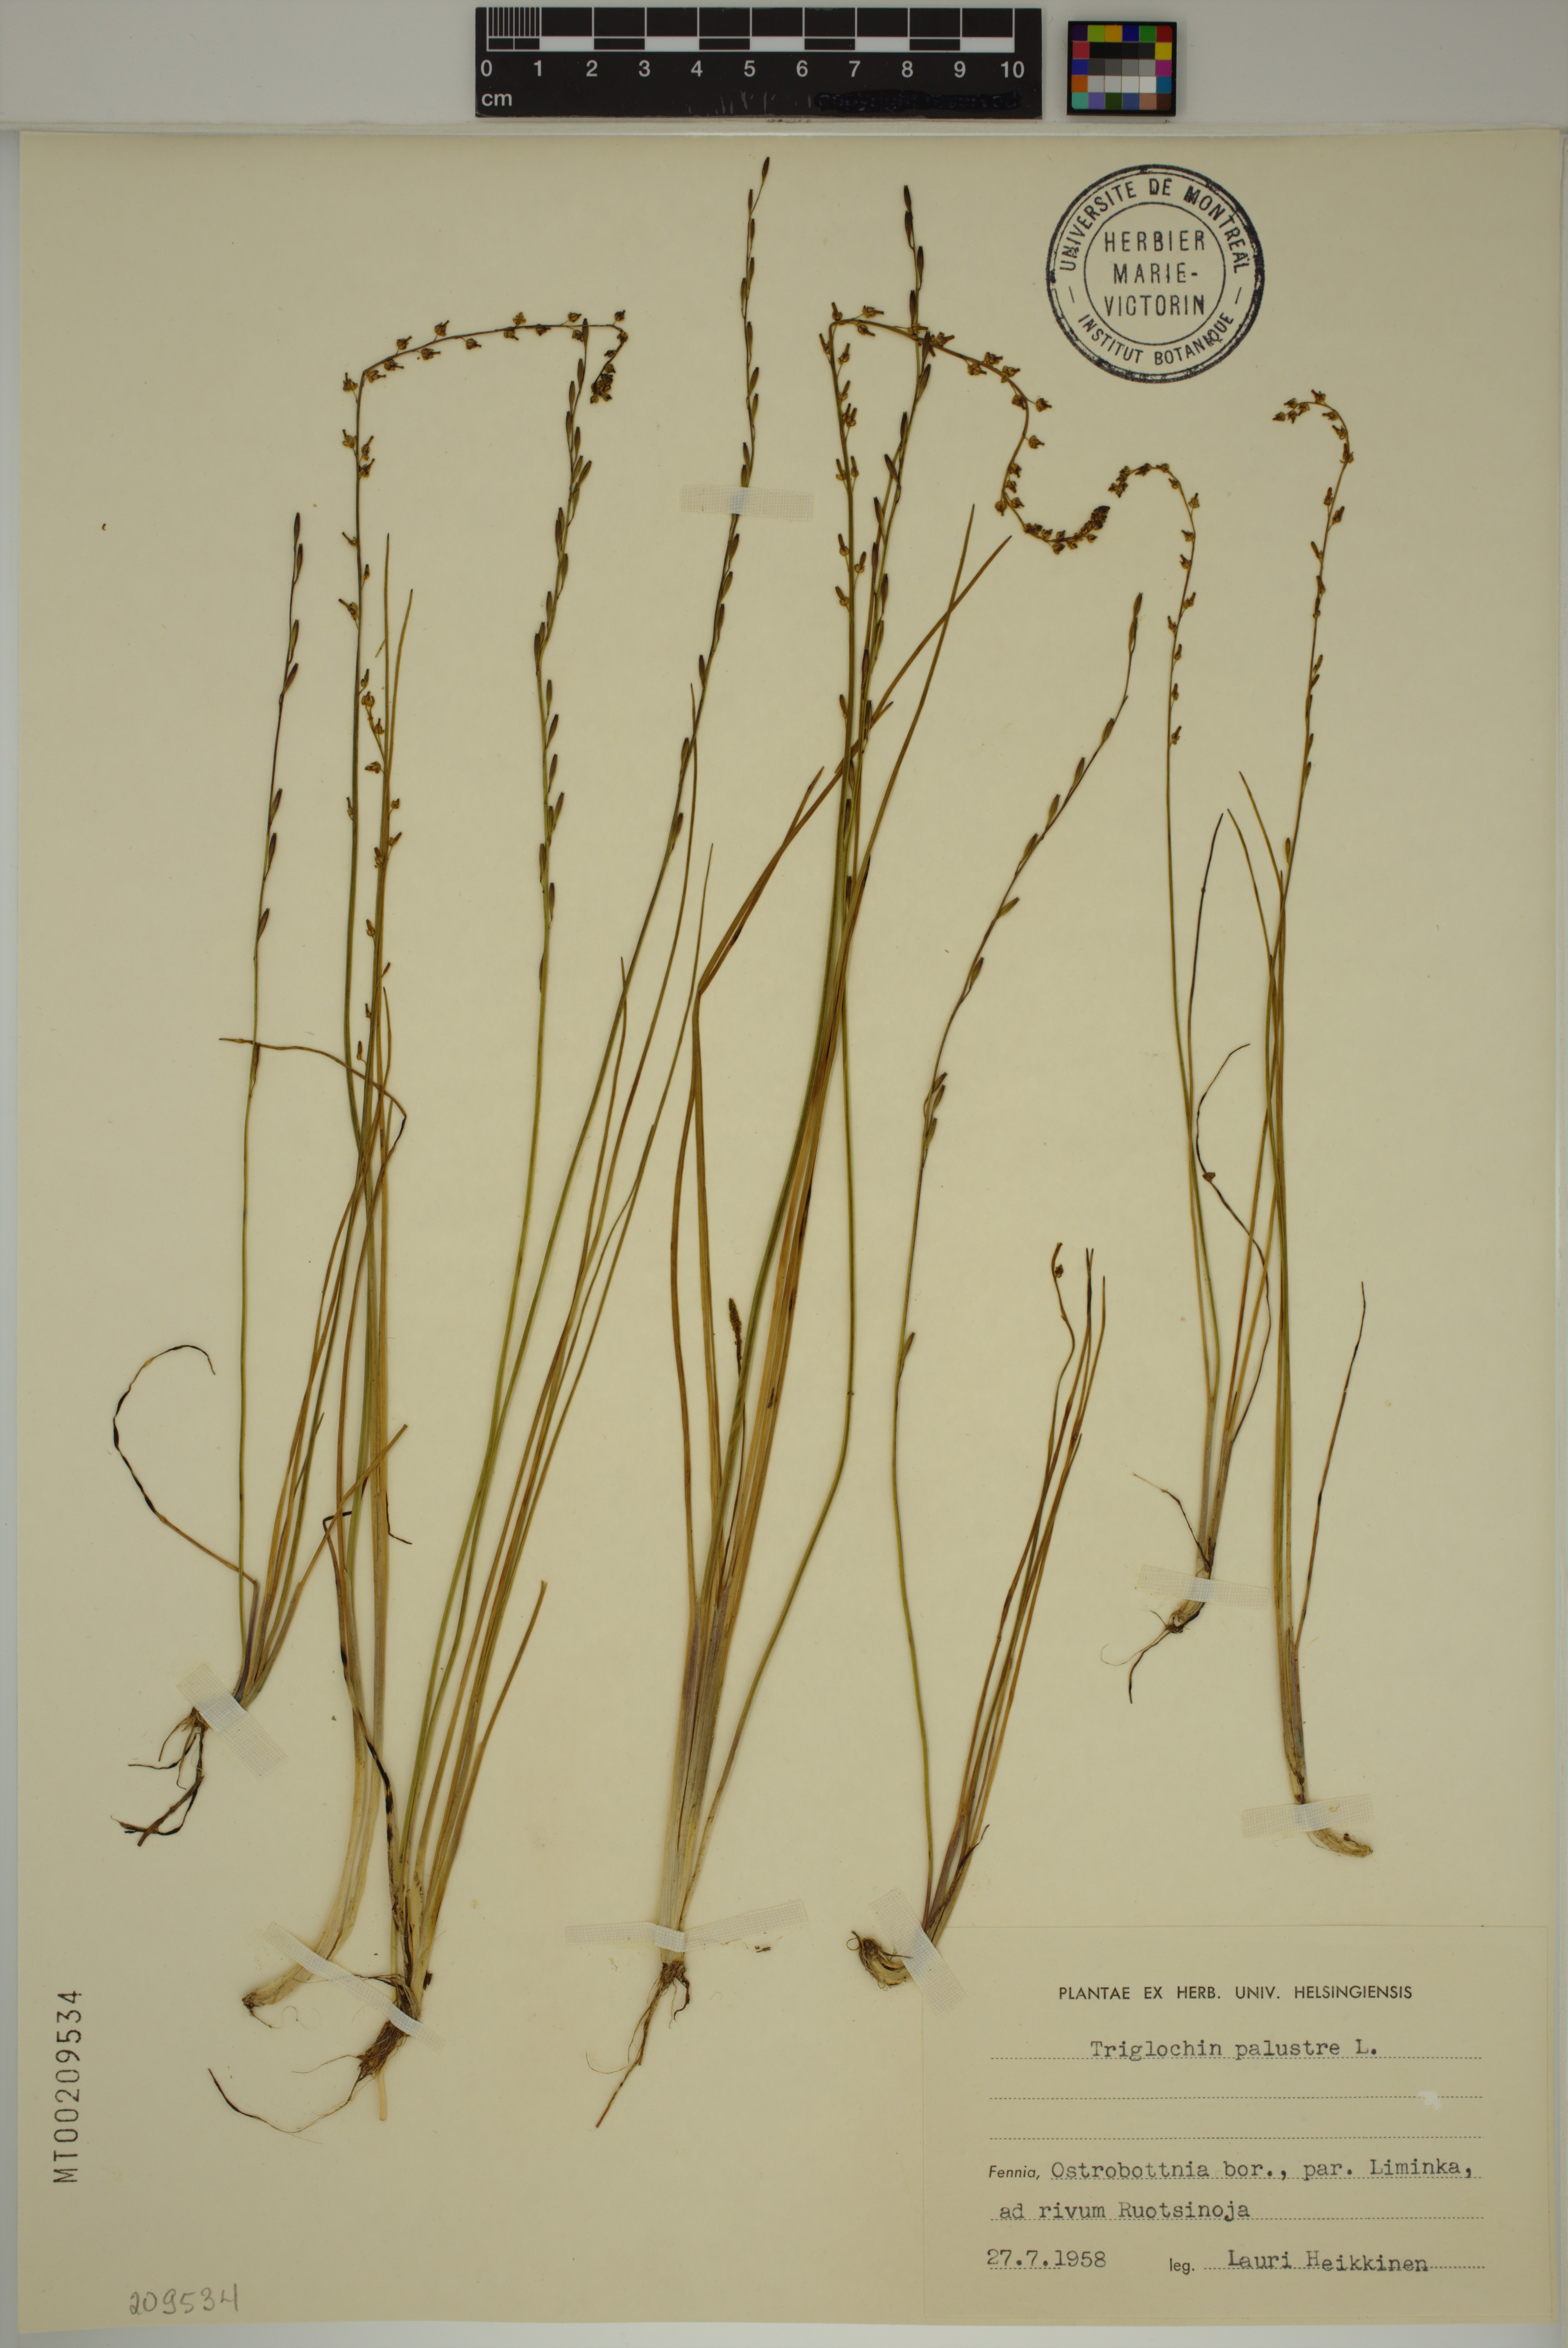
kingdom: Plantae
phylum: Tracheophyta
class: Liliopsida
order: Alismatales
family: Juncaginaceae
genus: Triglochin
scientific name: Triglochin palustris
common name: Marsh arrowgrass
